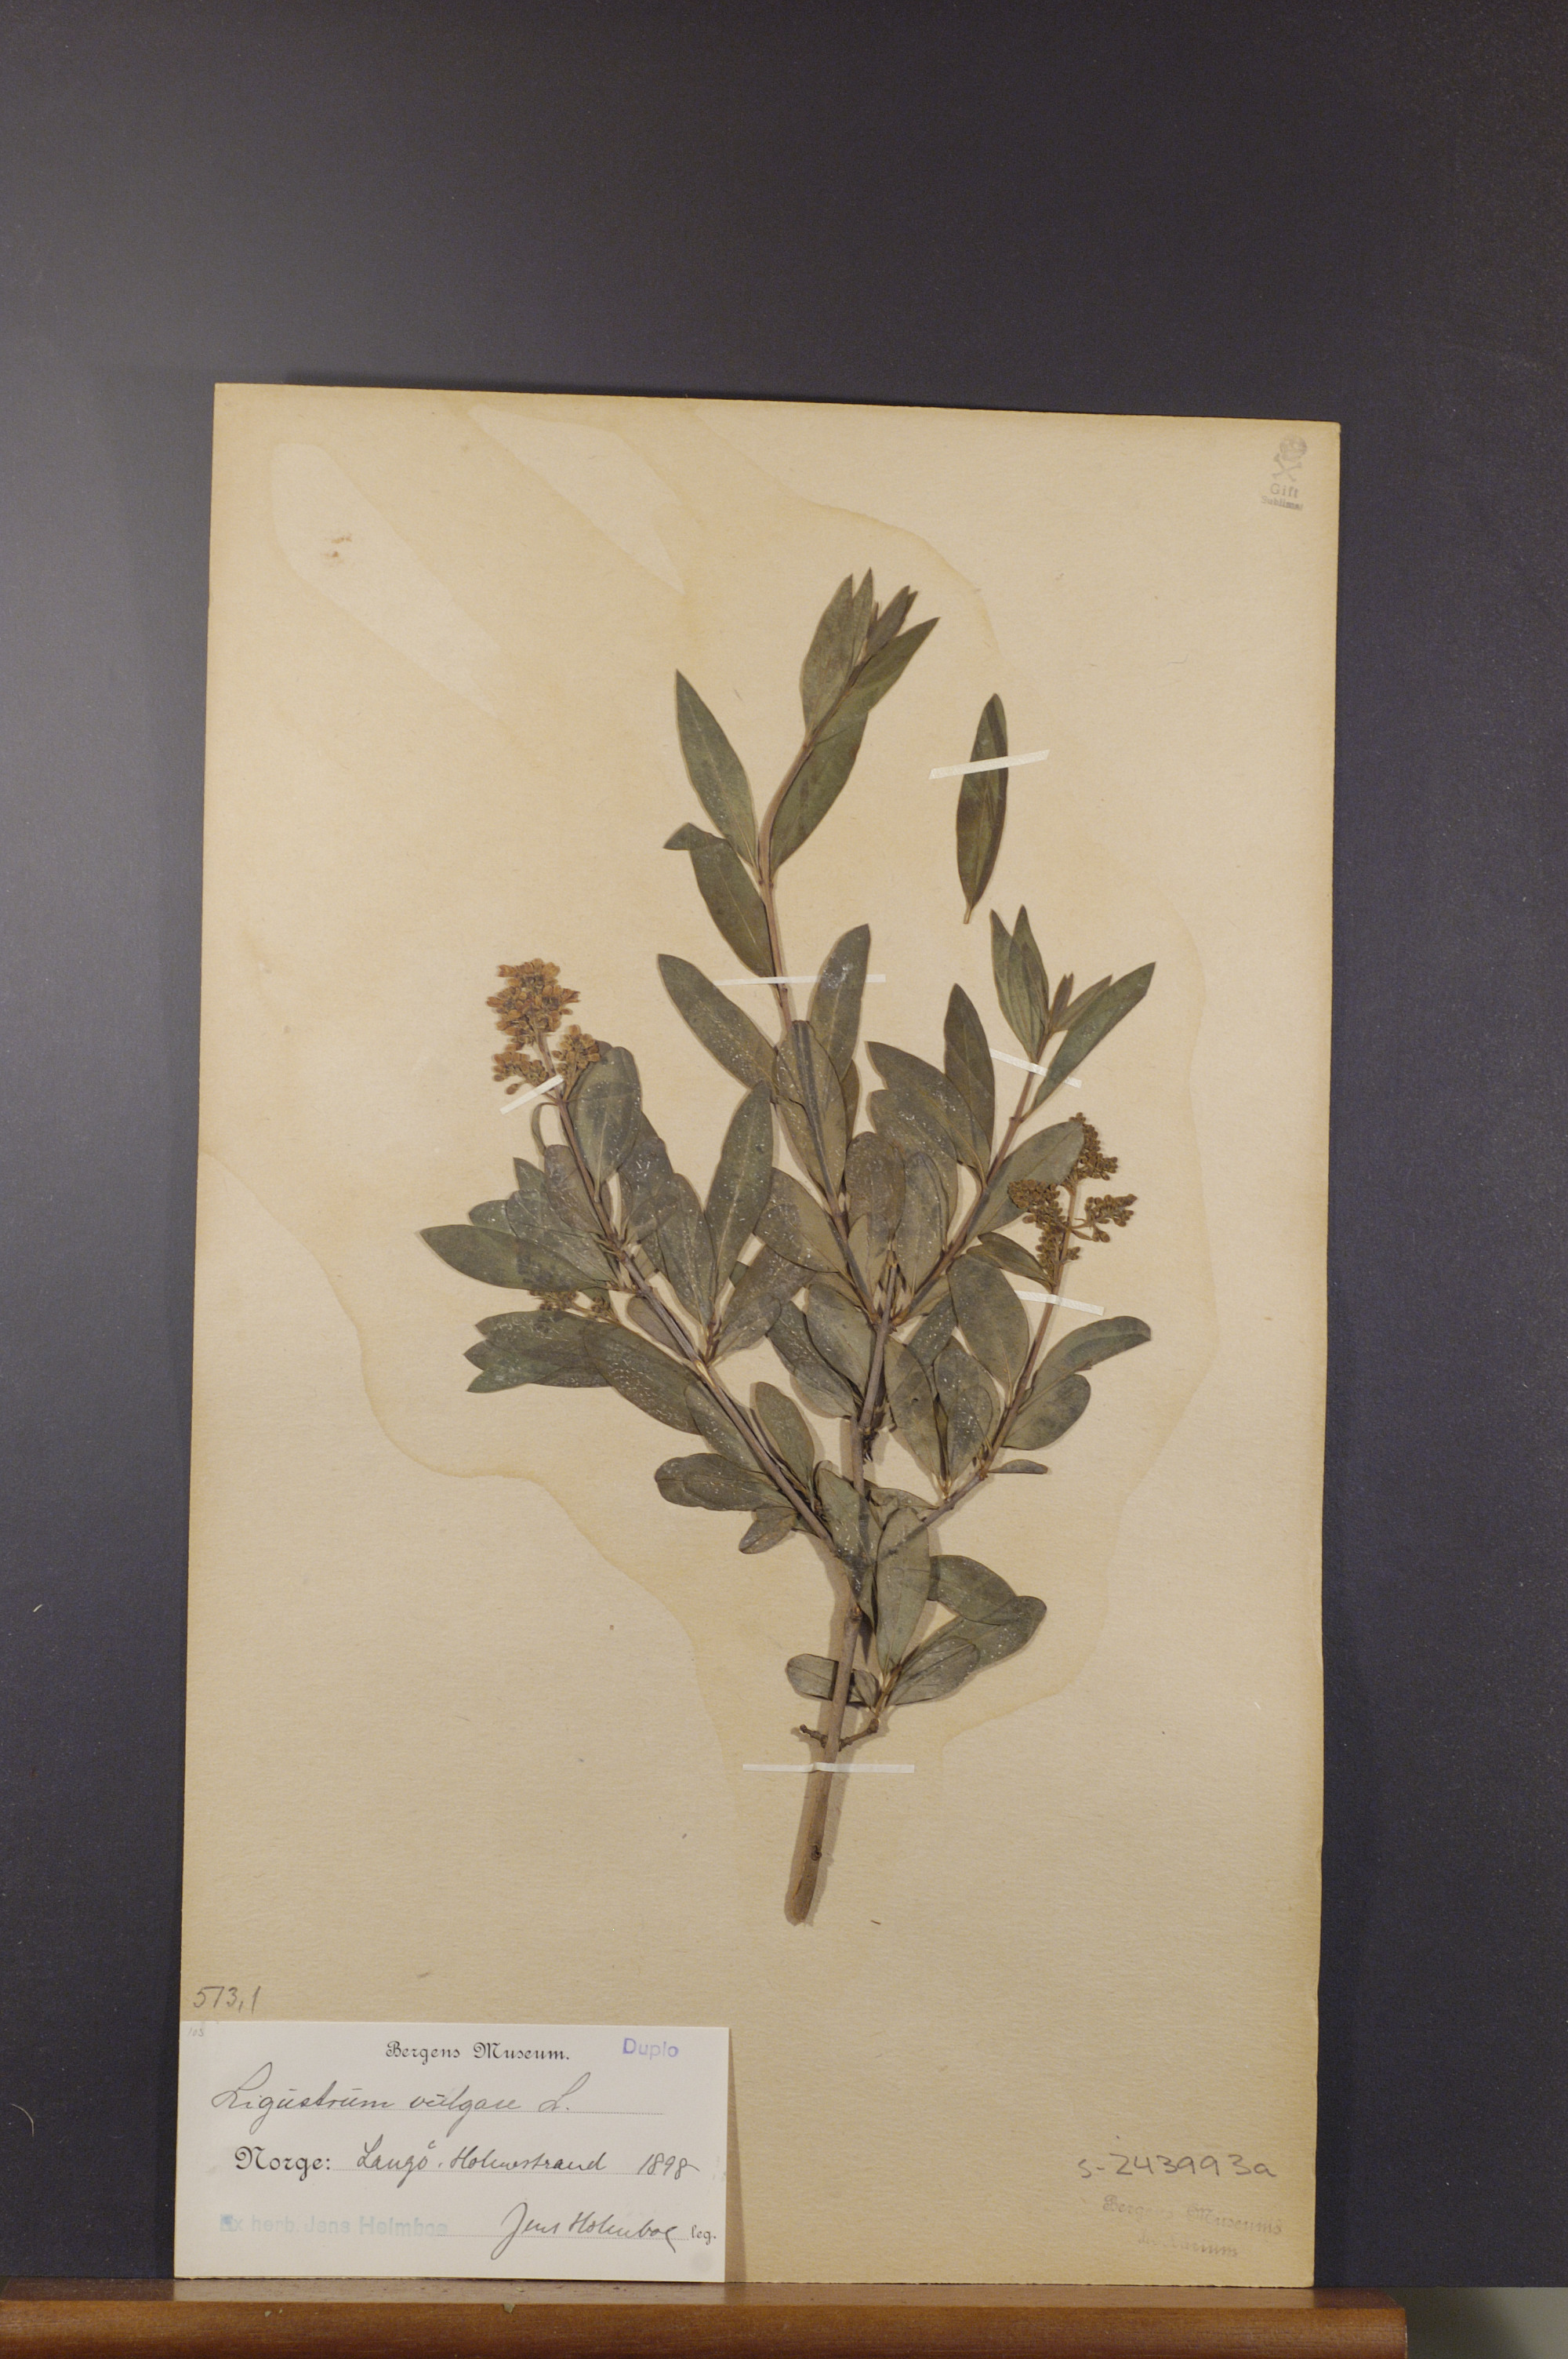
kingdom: Plantae
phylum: Tracheophyta
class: Magnoliopsida
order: Lamiales
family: Oleaceae
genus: Ligustrum
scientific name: Ligustrum vulgare
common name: Wild privet
